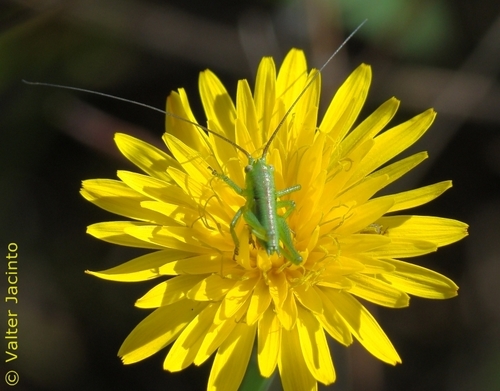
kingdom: Animalia
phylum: Arthropoda
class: Insecta
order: Orthoptera
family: Tettigoniidae
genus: Tettigonia
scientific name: Tettigonia viridissima
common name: Great green bush-cricket
